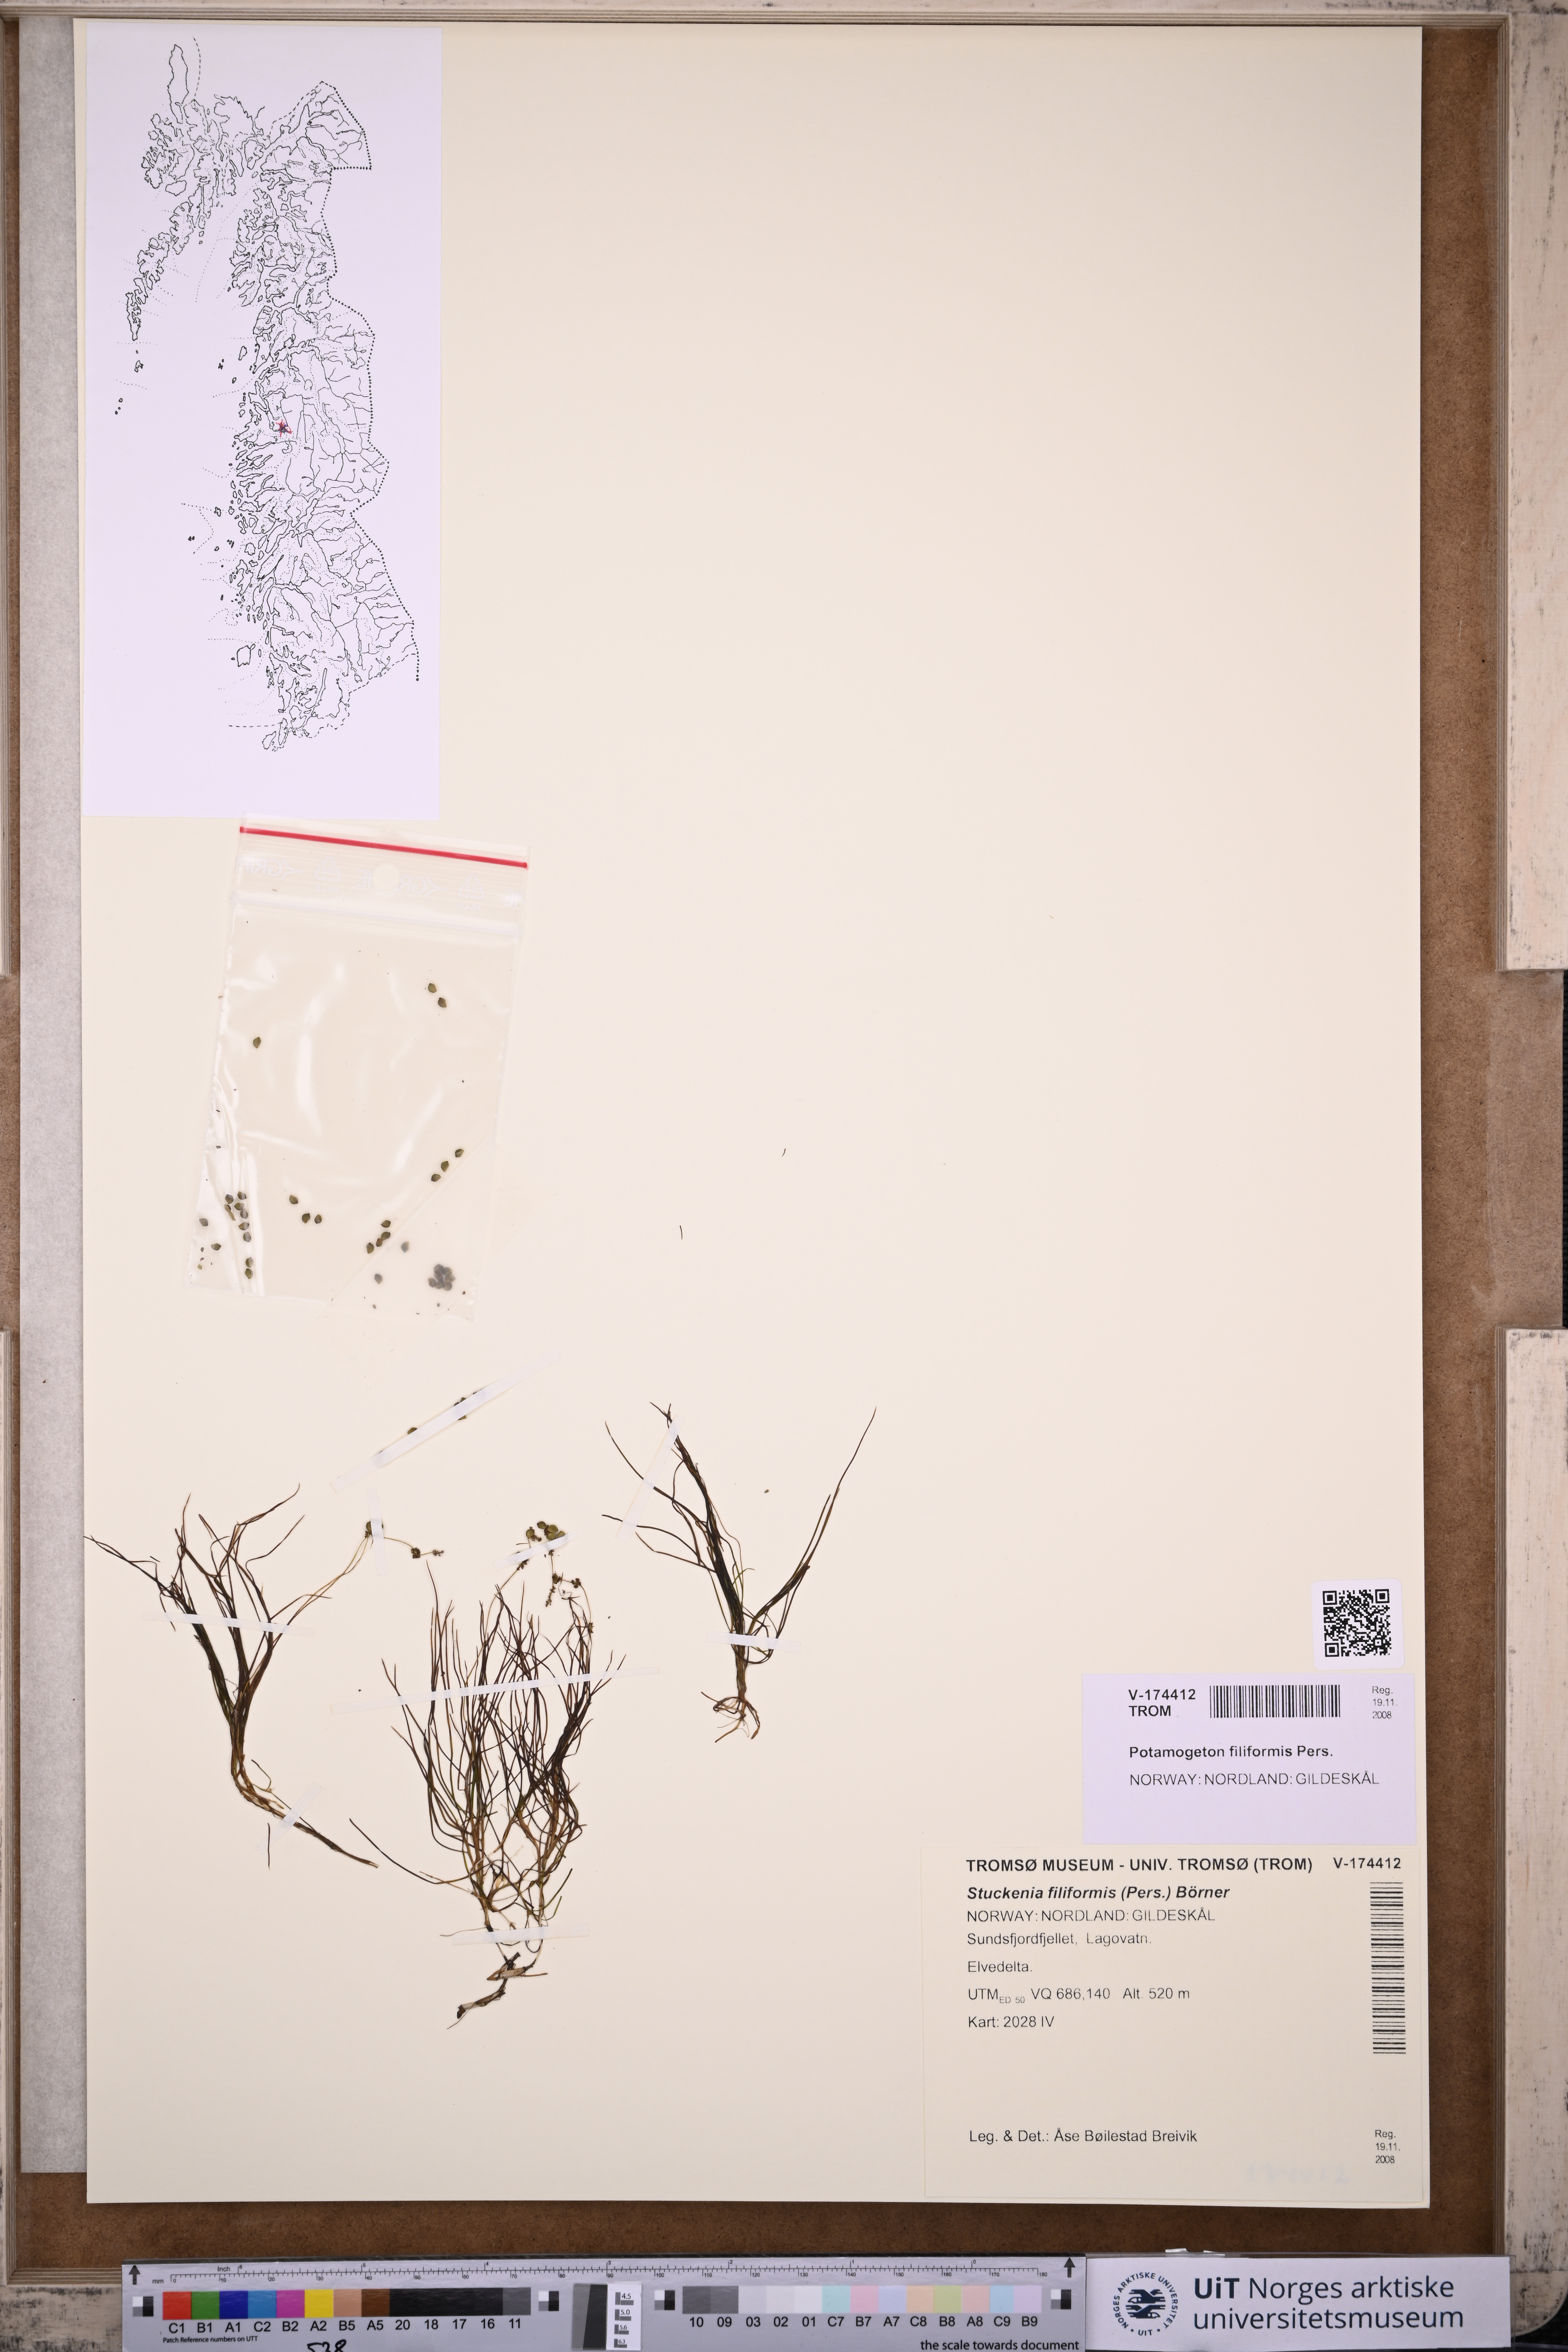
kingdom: Plantae
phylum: Tracheophyta
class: Liliopsida
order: Alismatales
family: Potamogetonaceae
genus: Stuckenia
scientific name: Stuckenia filiformis
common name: Alpine thread-leaved pondweed
